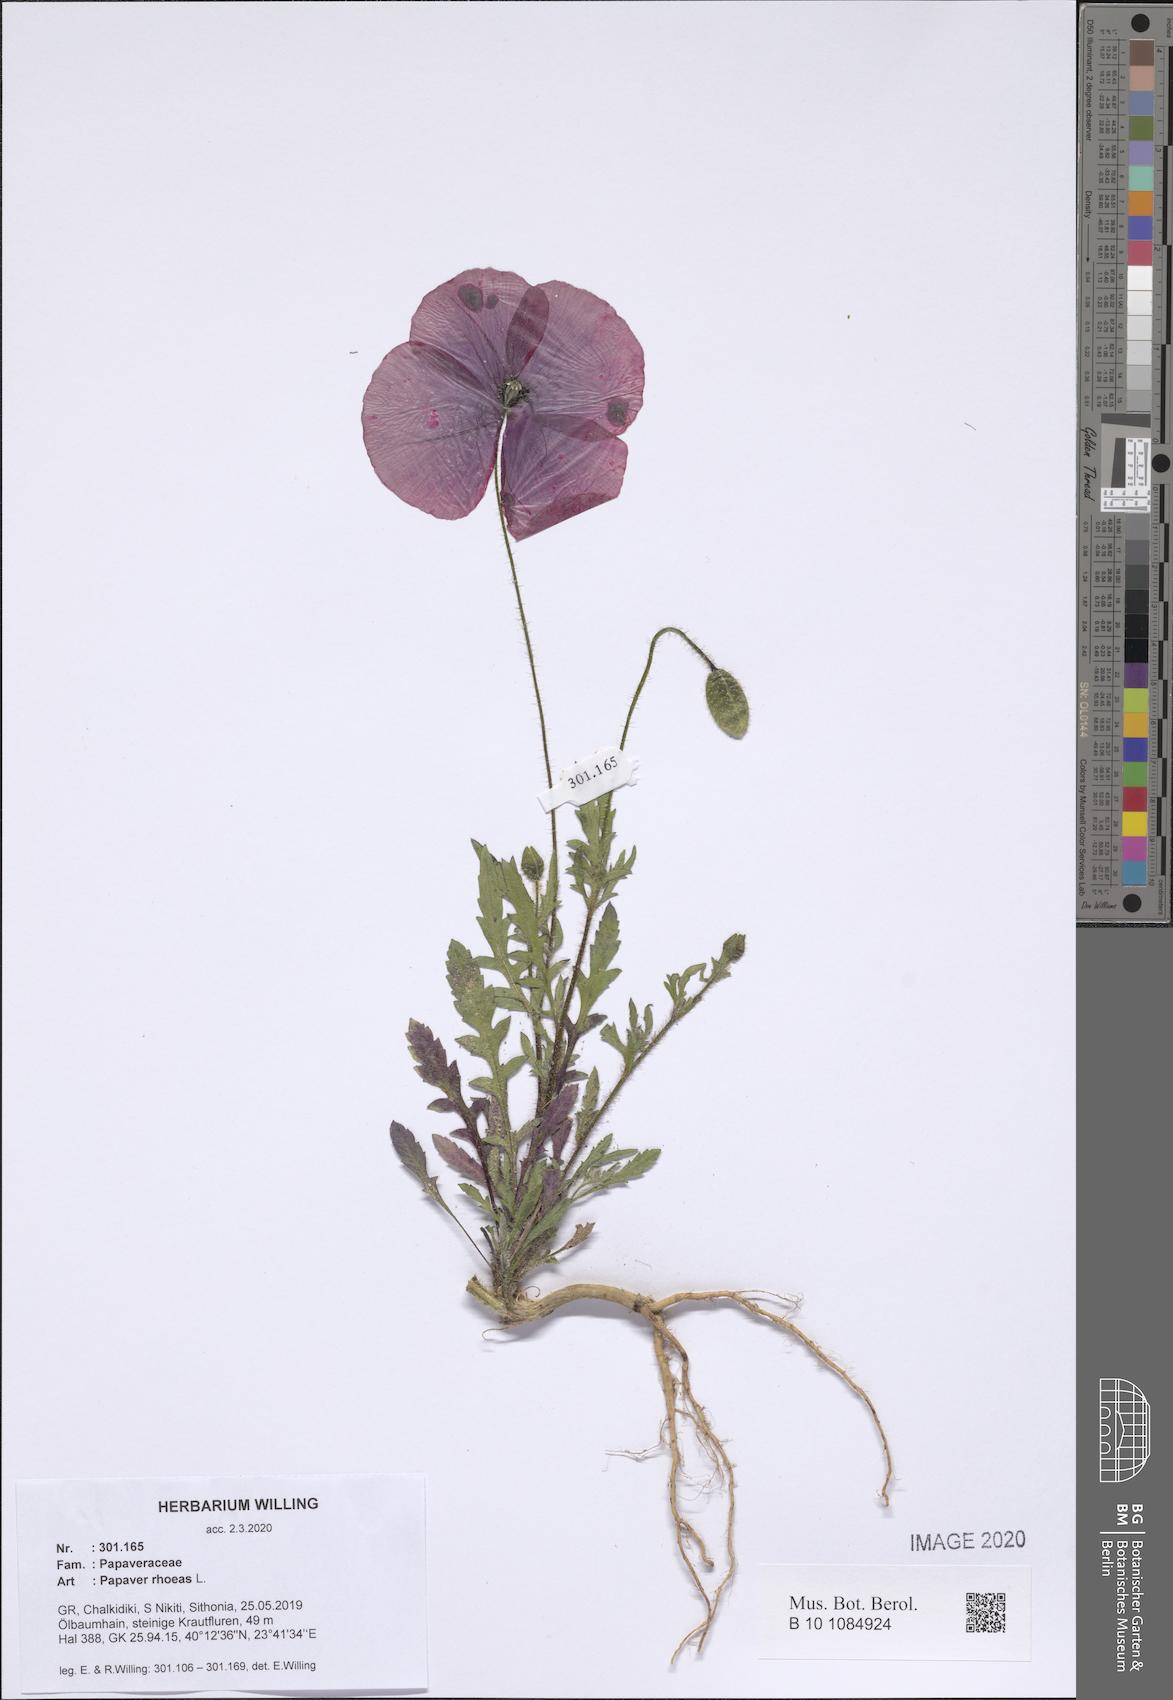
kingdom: Plantae
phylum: Tracheophyta
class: Magnoliopsida
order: Ranunculales
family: Papaveraceae
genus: Papaver
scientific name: Papaver rhoeas
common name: Corn poppy
